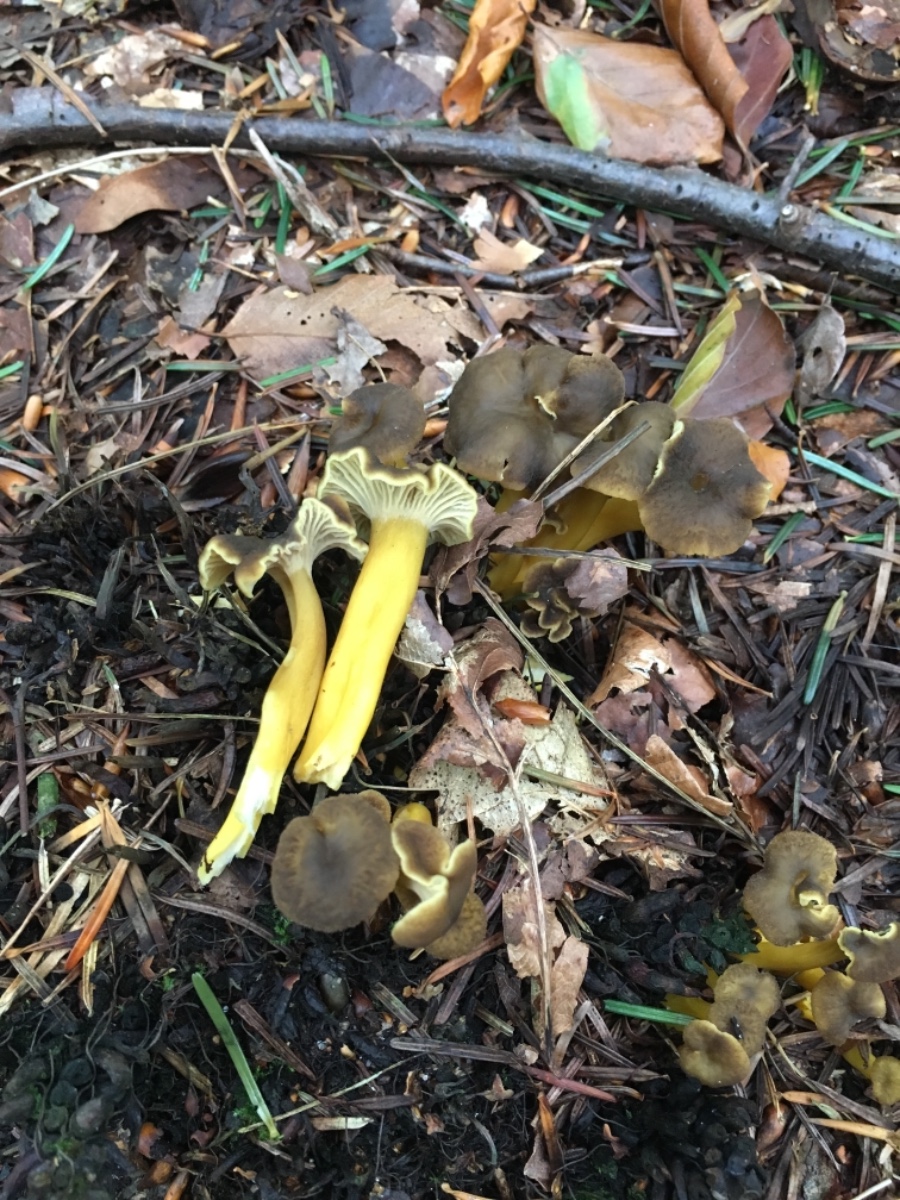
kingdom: Fungi
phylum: Basidiomycota
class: Agaricomycetes
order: Cantharellales
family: Hydnaceae
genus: Craterellus
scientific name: Craterellus tubaeformis
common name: tragt-kantarel
